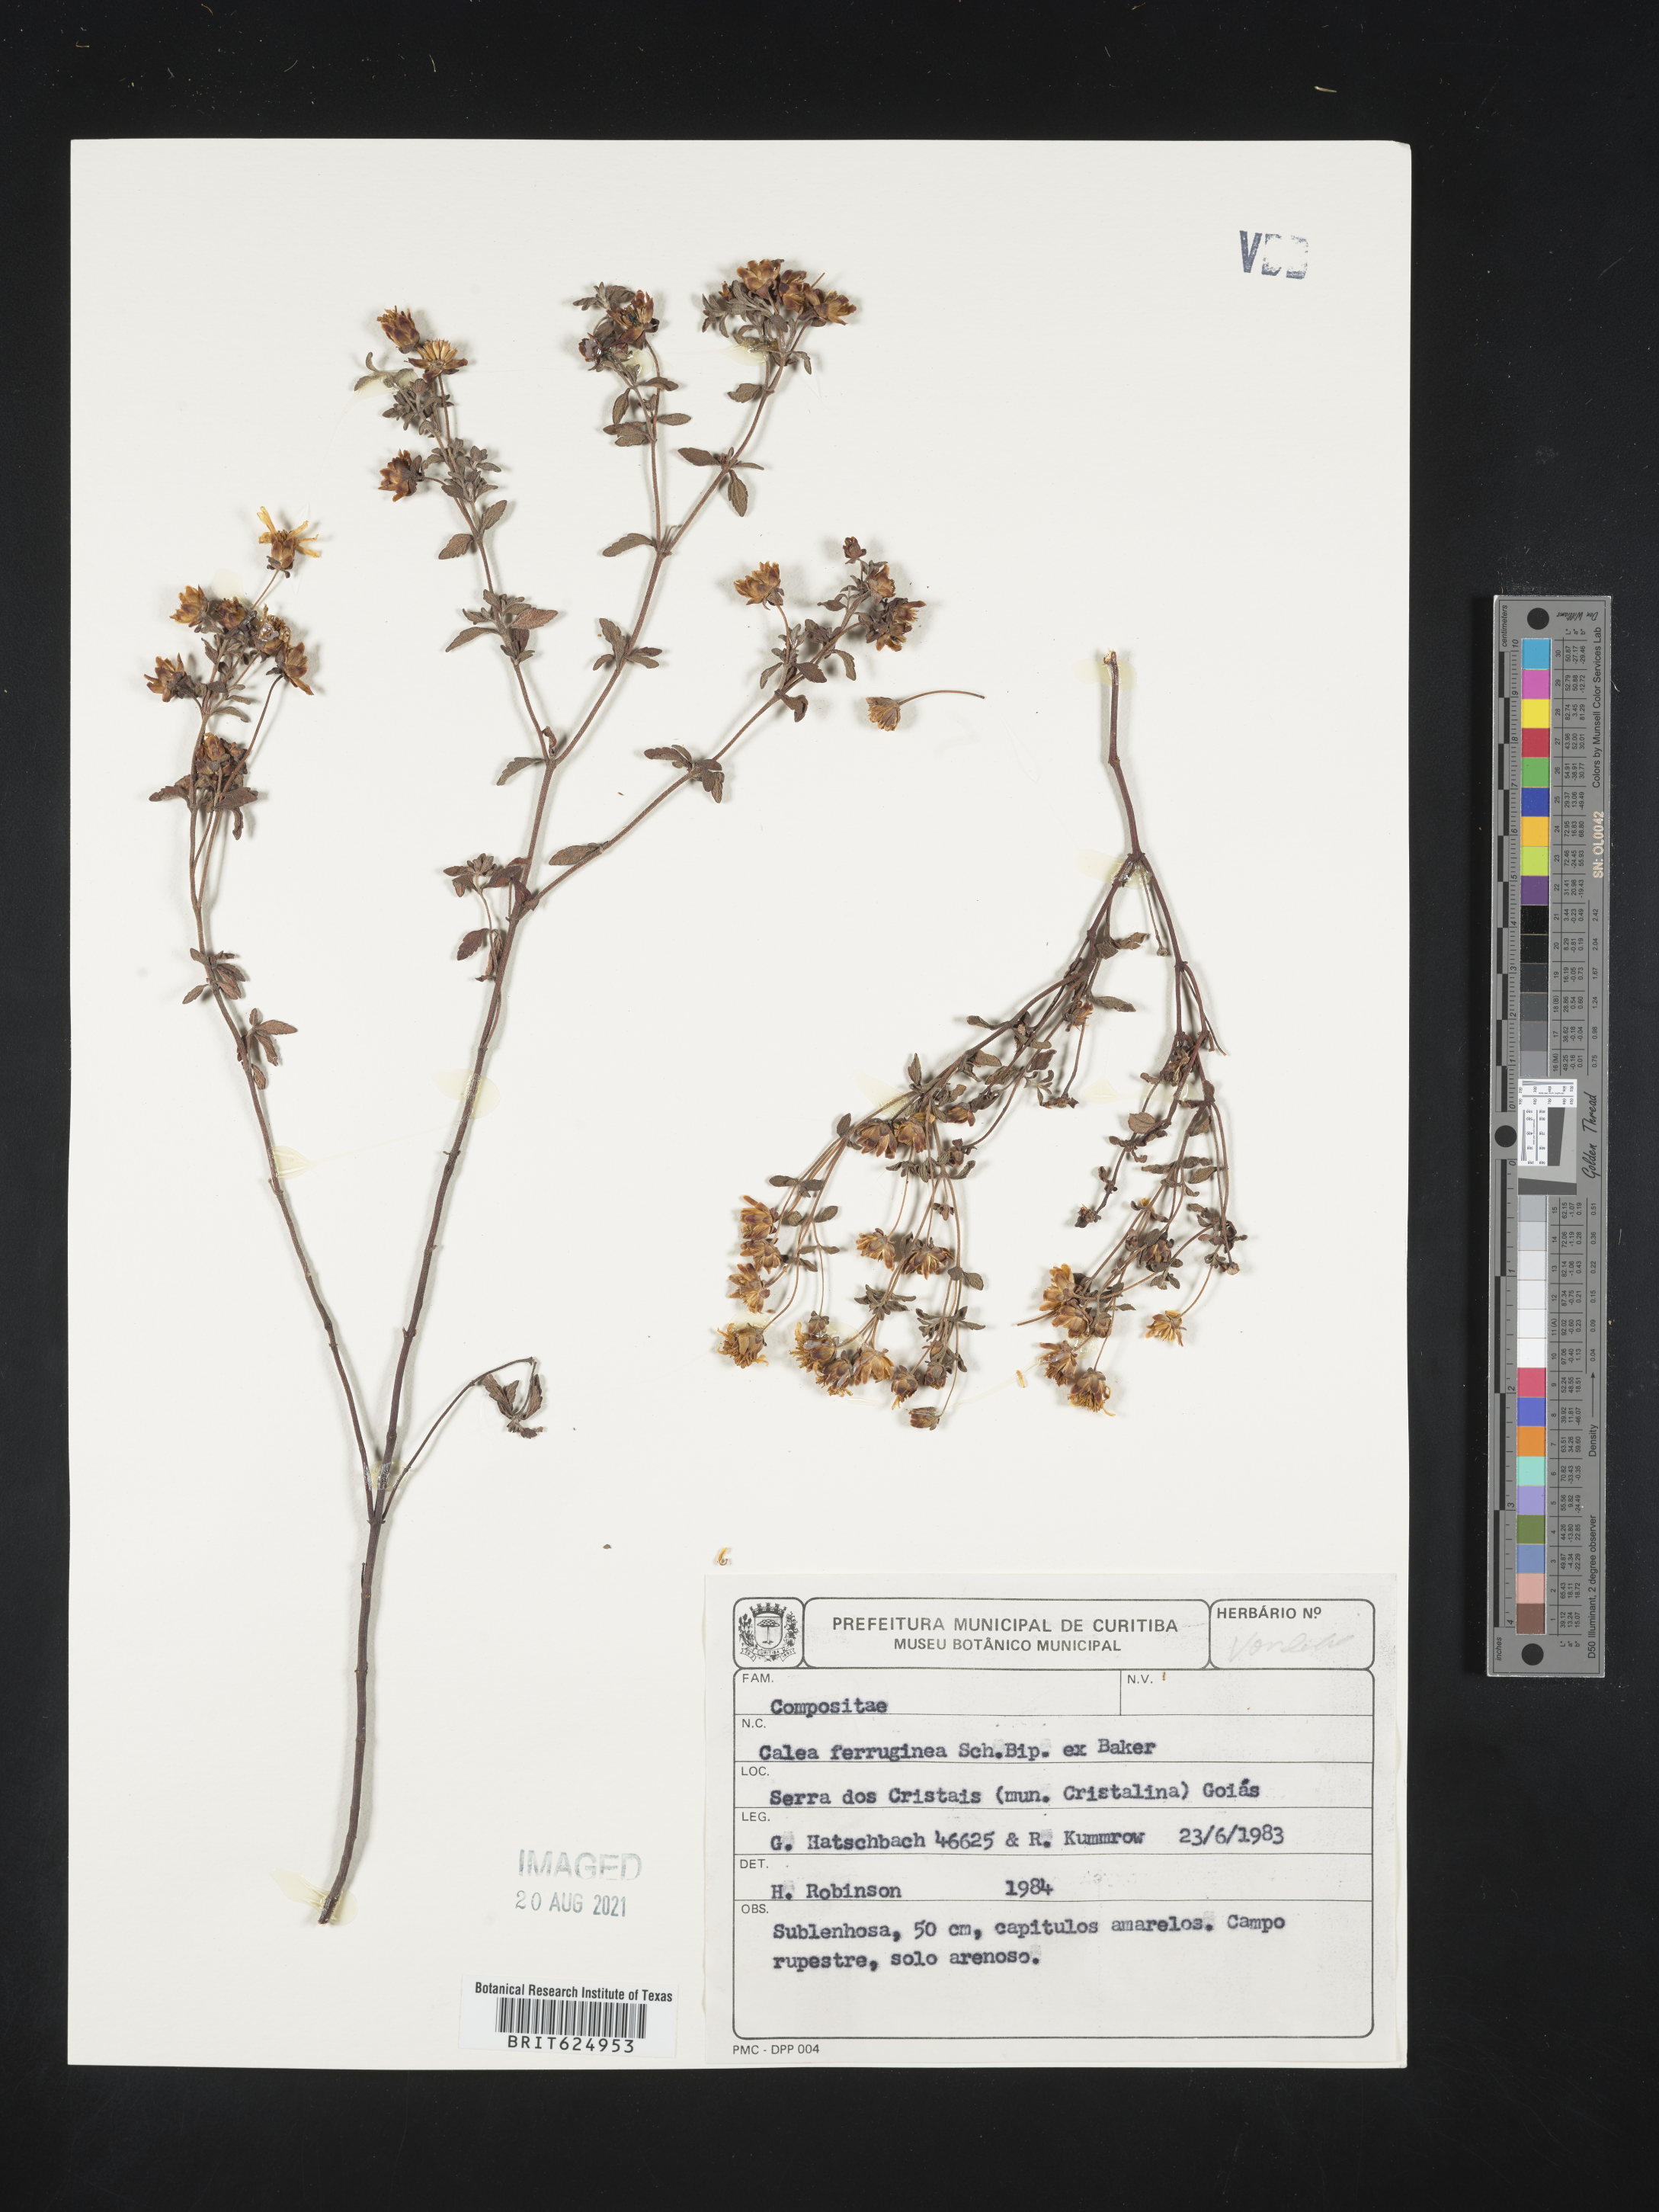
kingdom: Plantae
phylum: Tracheophyta
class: Magnoliopsida
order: Asterales
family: Asteraceae
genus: Calea
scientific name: Calea microphylla
